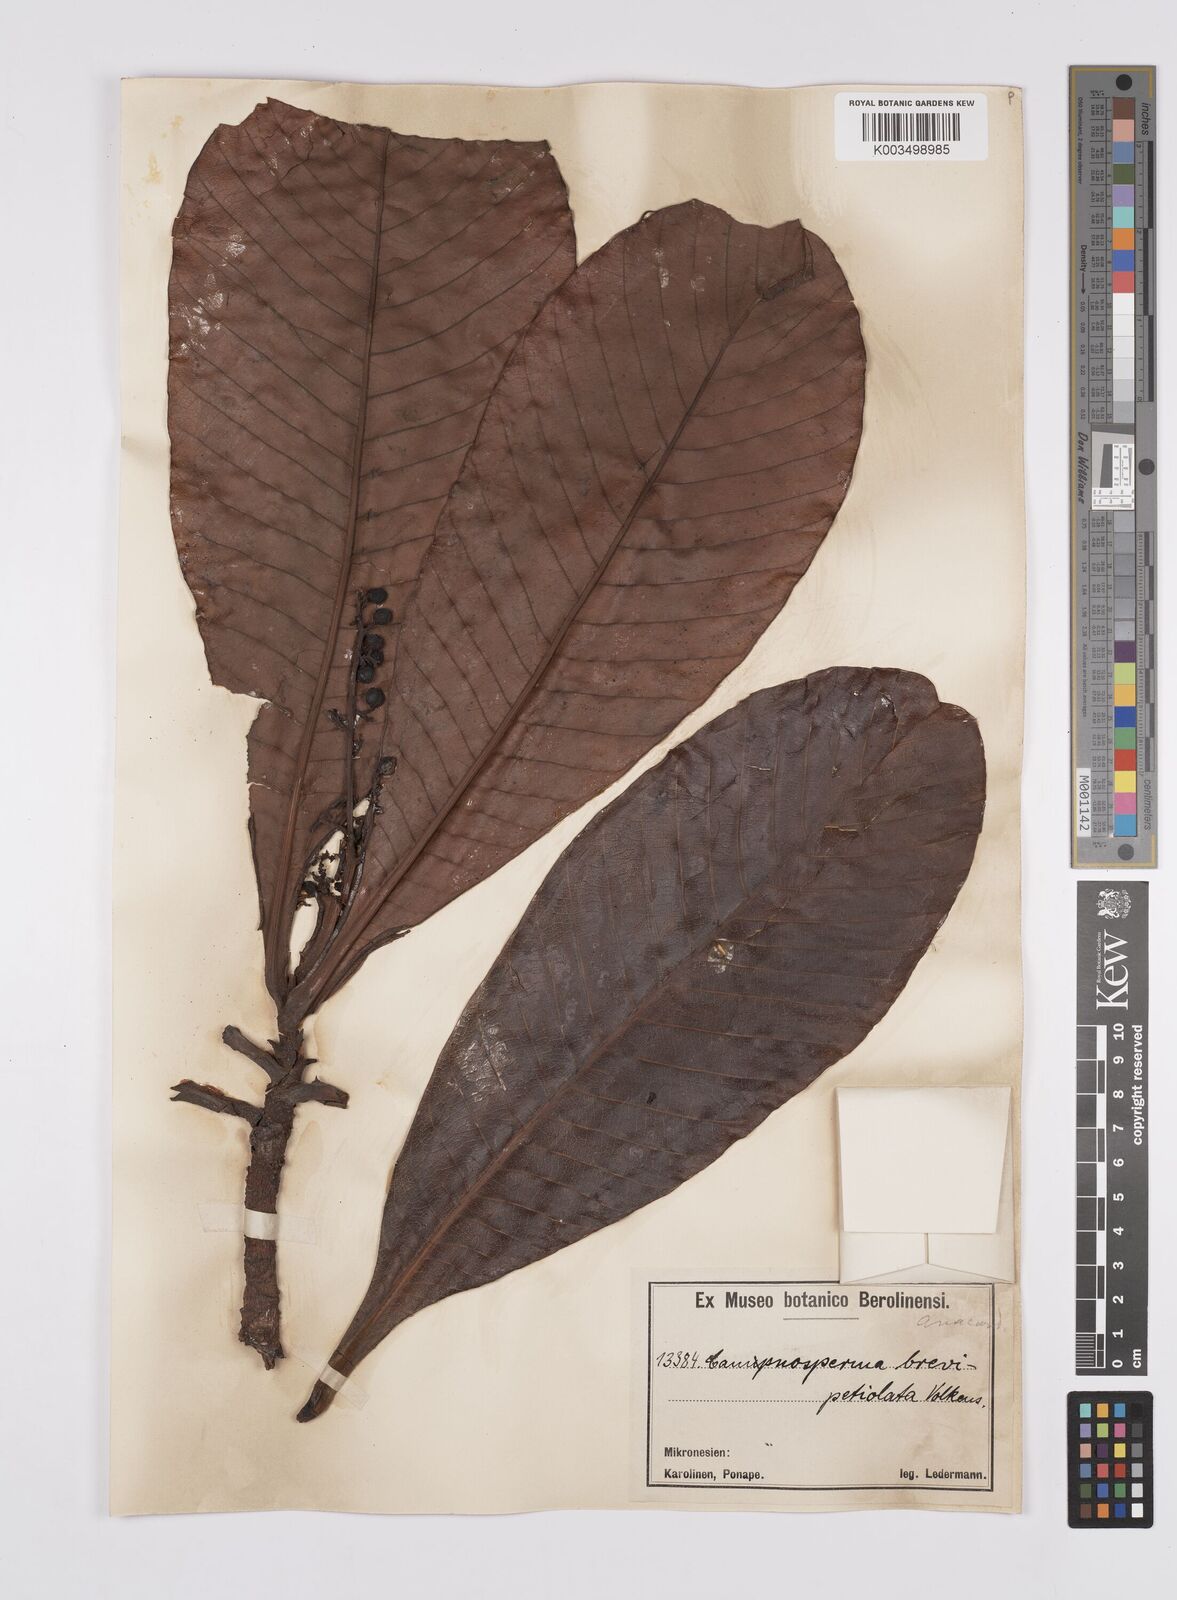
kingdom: Plantae
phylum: Tracheophyta
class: Magnoliopsida
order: Sapindales
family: Anacardiaceae
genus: Campnosperma
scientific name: Campnosperma brevipetiolatum
